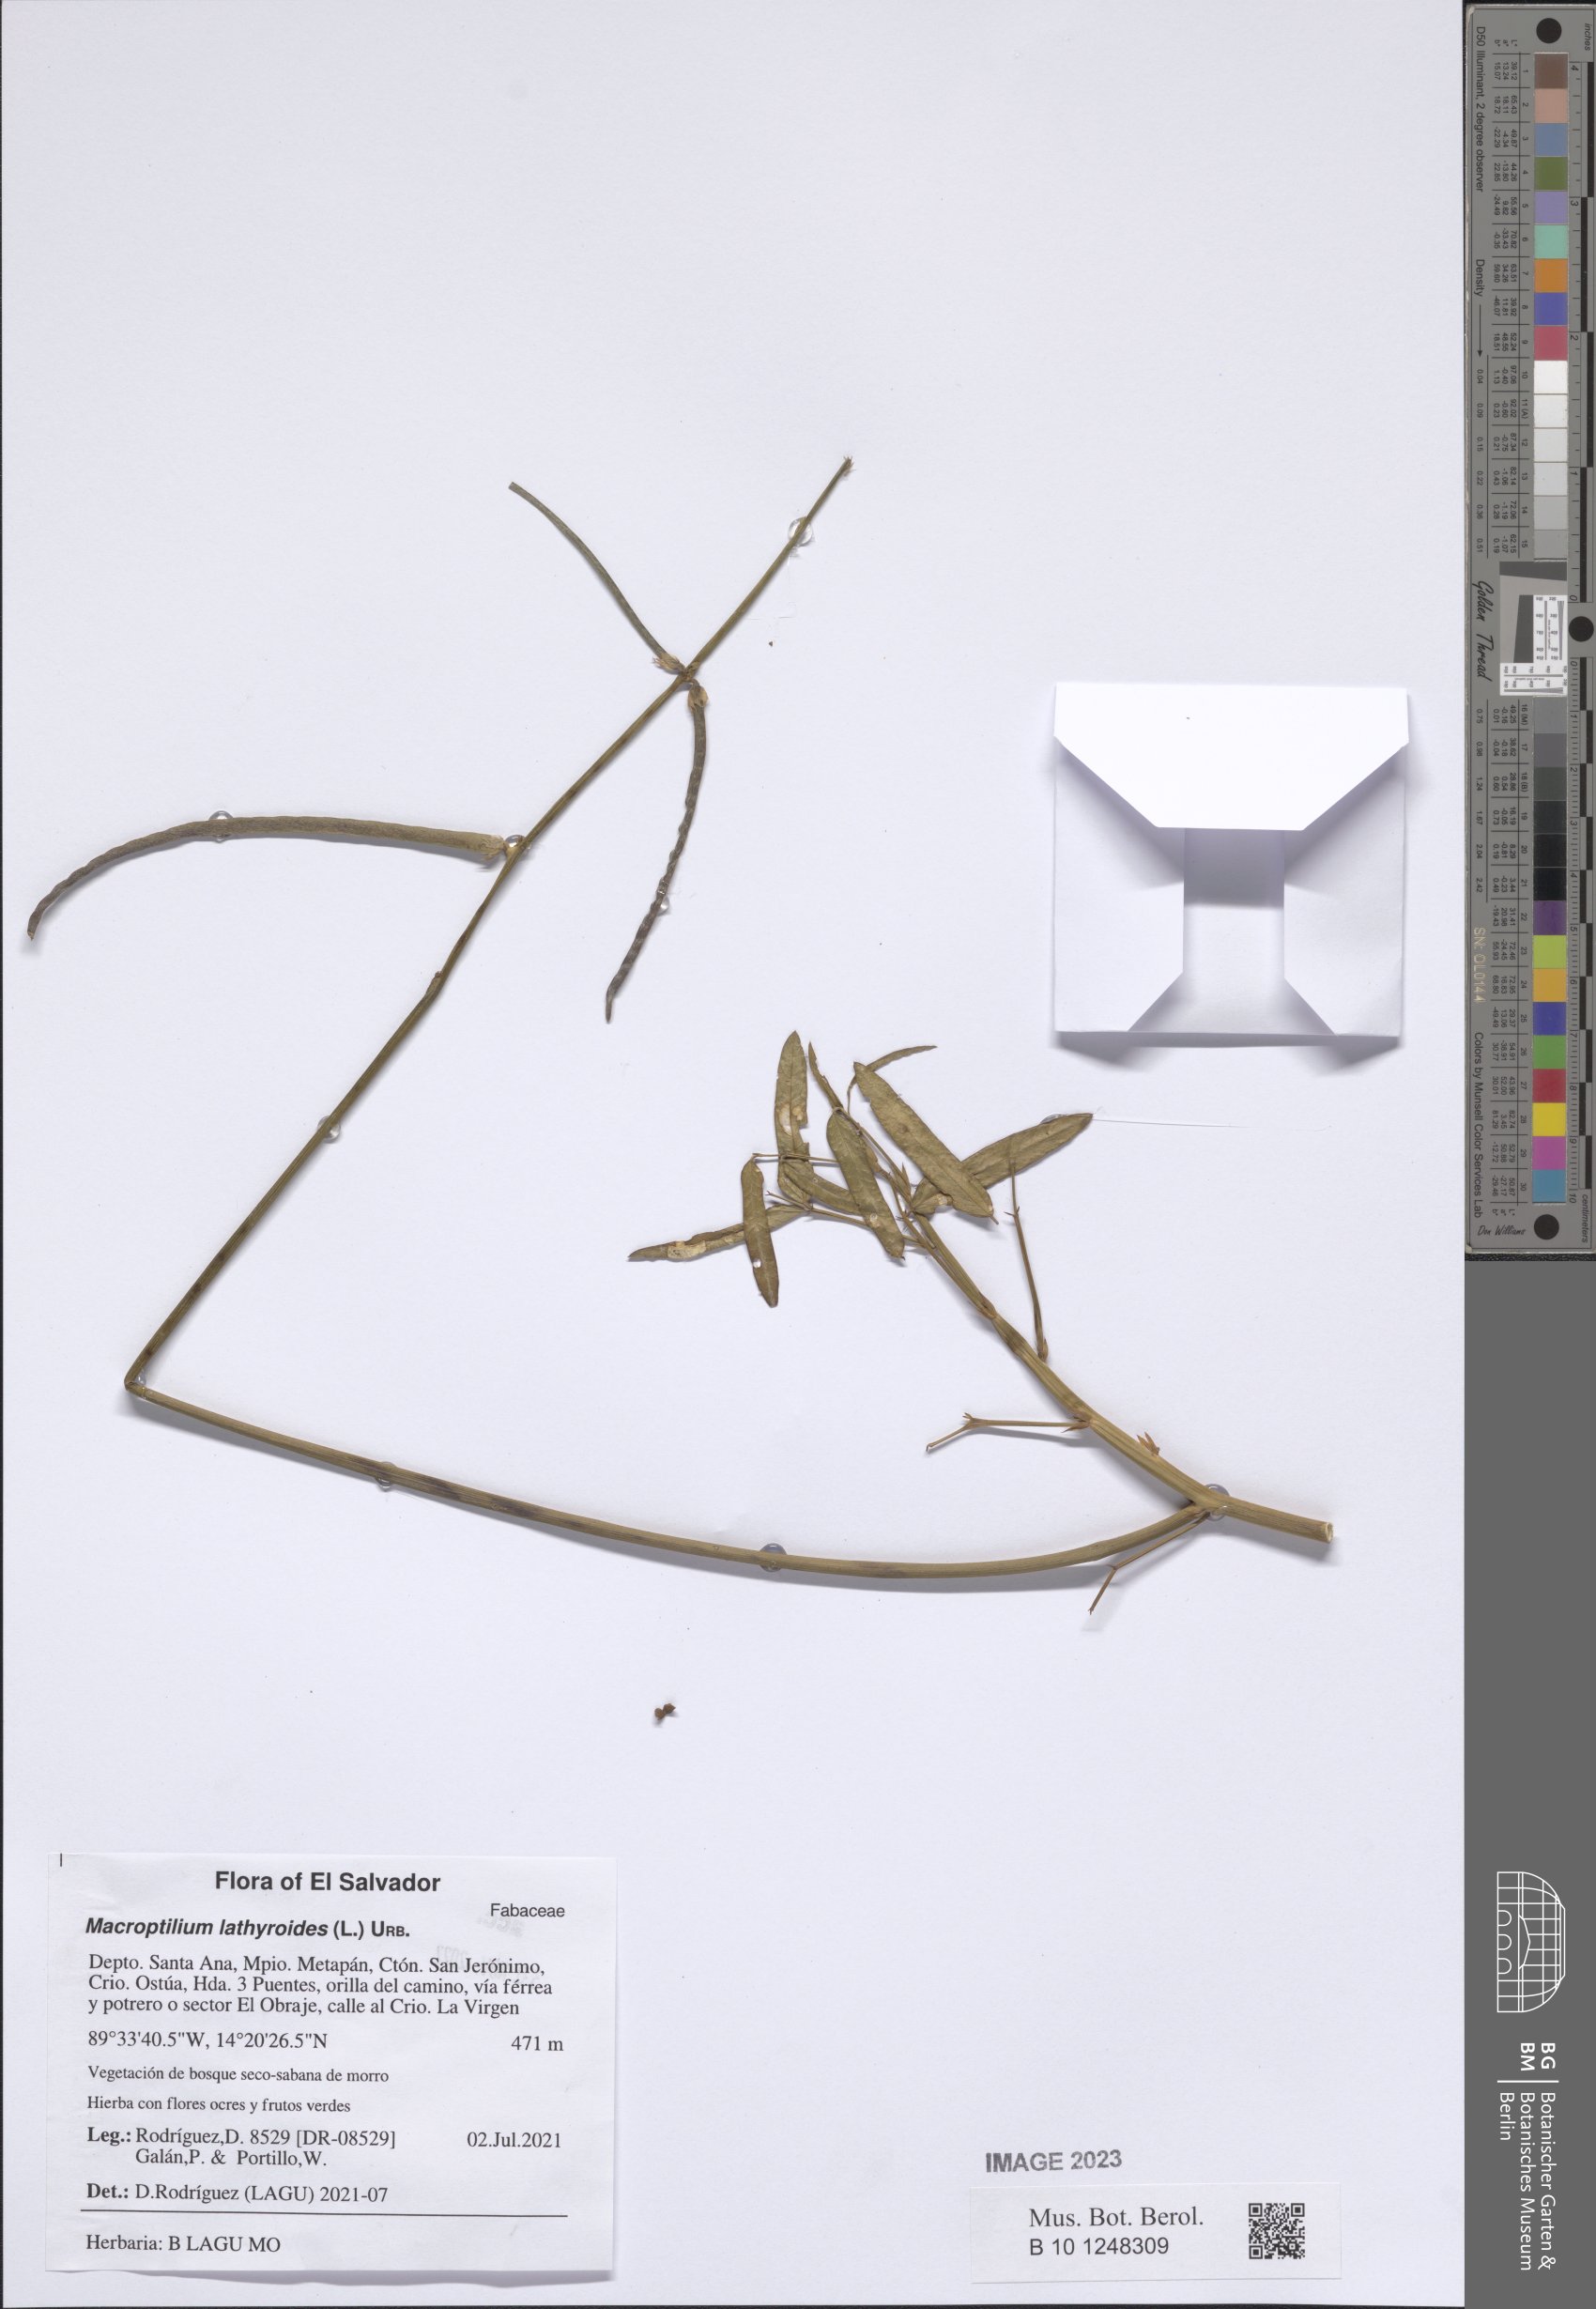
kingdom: Plantae
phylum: Tracheophyta
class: Magnoliopsida
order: Fabales
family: Fabaceae
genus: Macroptilium
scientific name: Macroptilium lathyroides
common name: Wild bushbean
